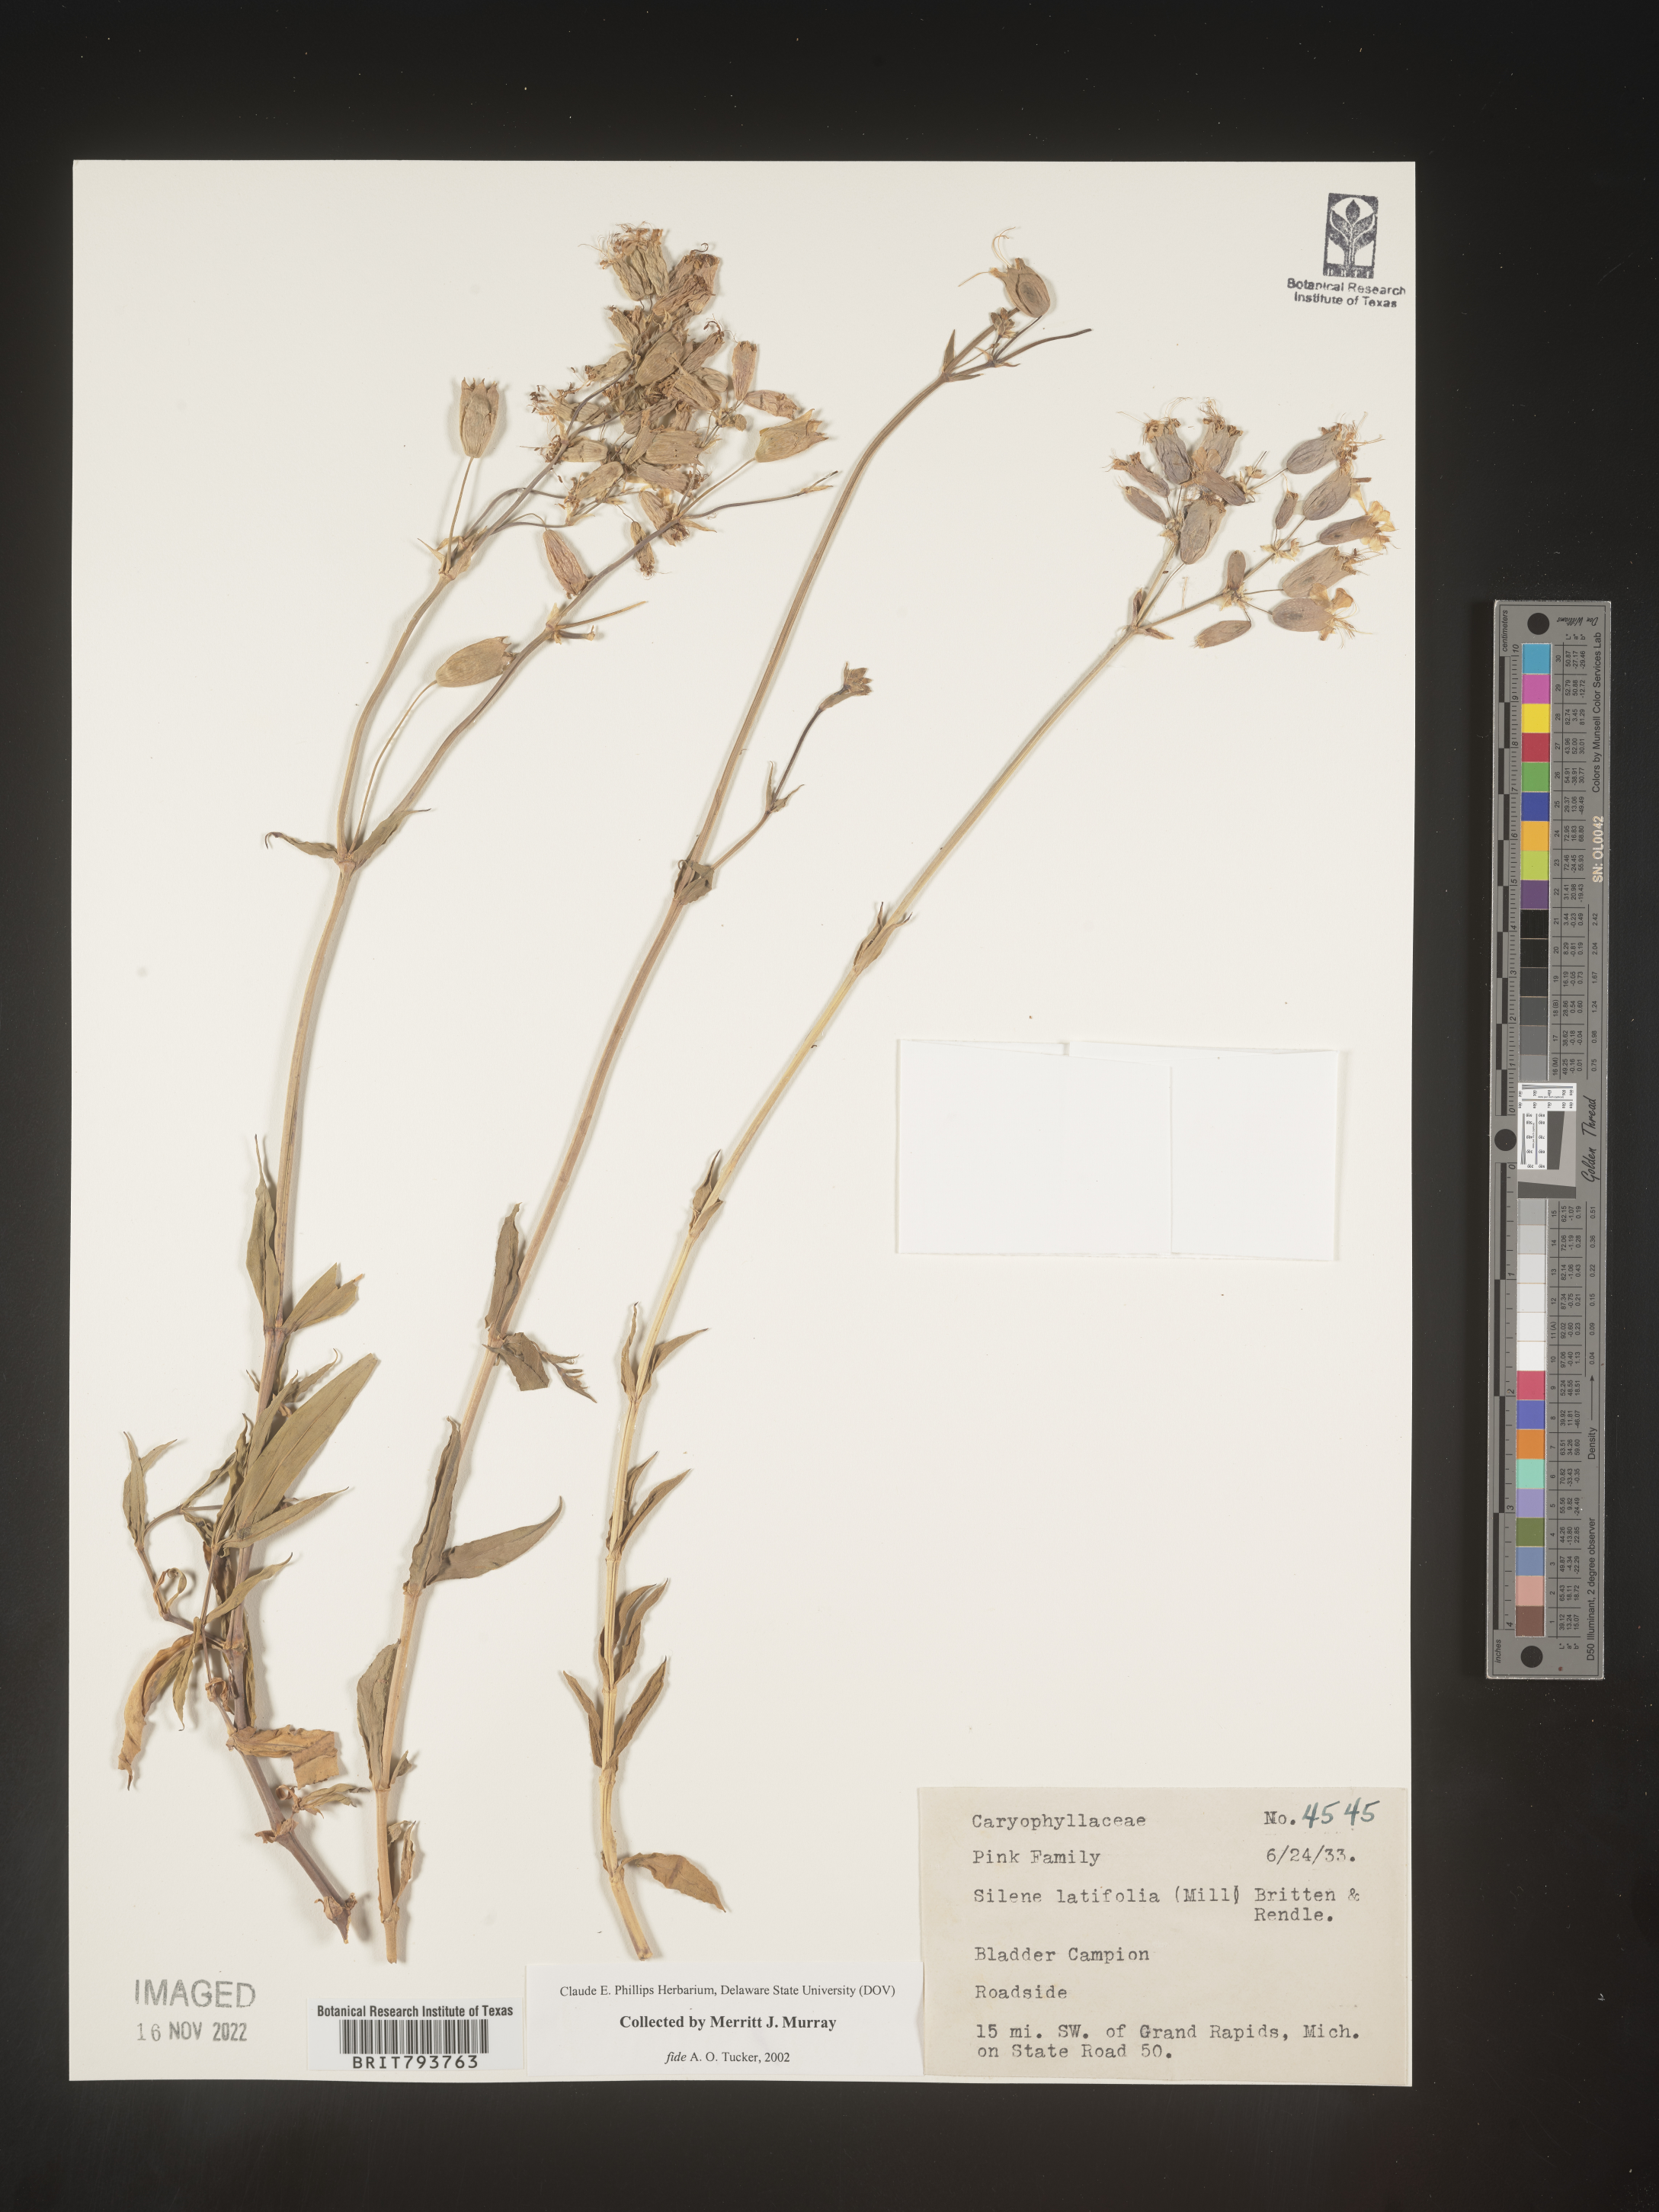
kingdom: Plantae
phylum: Tracheophyta
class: Magnoliopsida
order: Caryophyllales
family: Caryophyllaceae
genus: Silene
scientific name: Silene latifolia
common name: White campion
